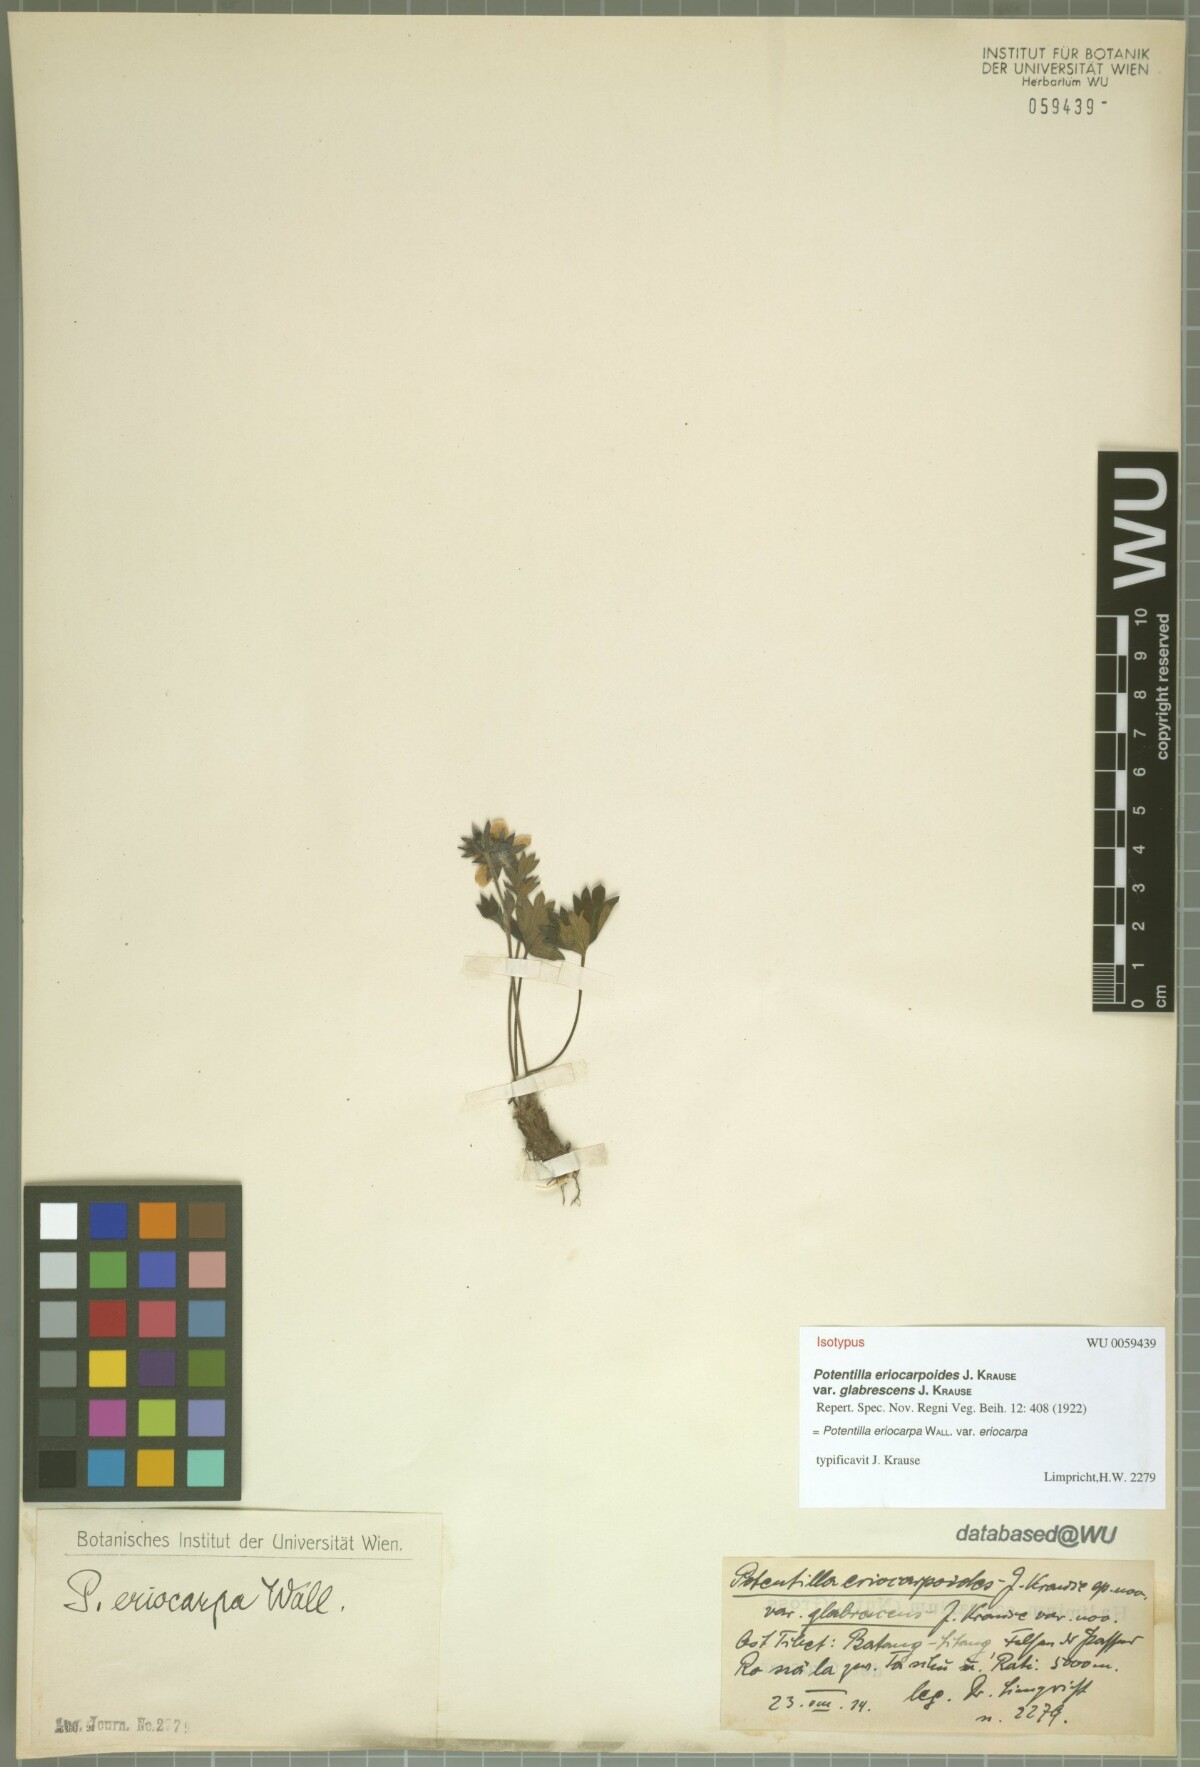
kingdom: Plantae
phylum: Tracheophyta
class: Magnoliopsida
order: Rosales
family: Rosaceae
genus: Potentilla
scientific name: Potentilla eriocarpa
